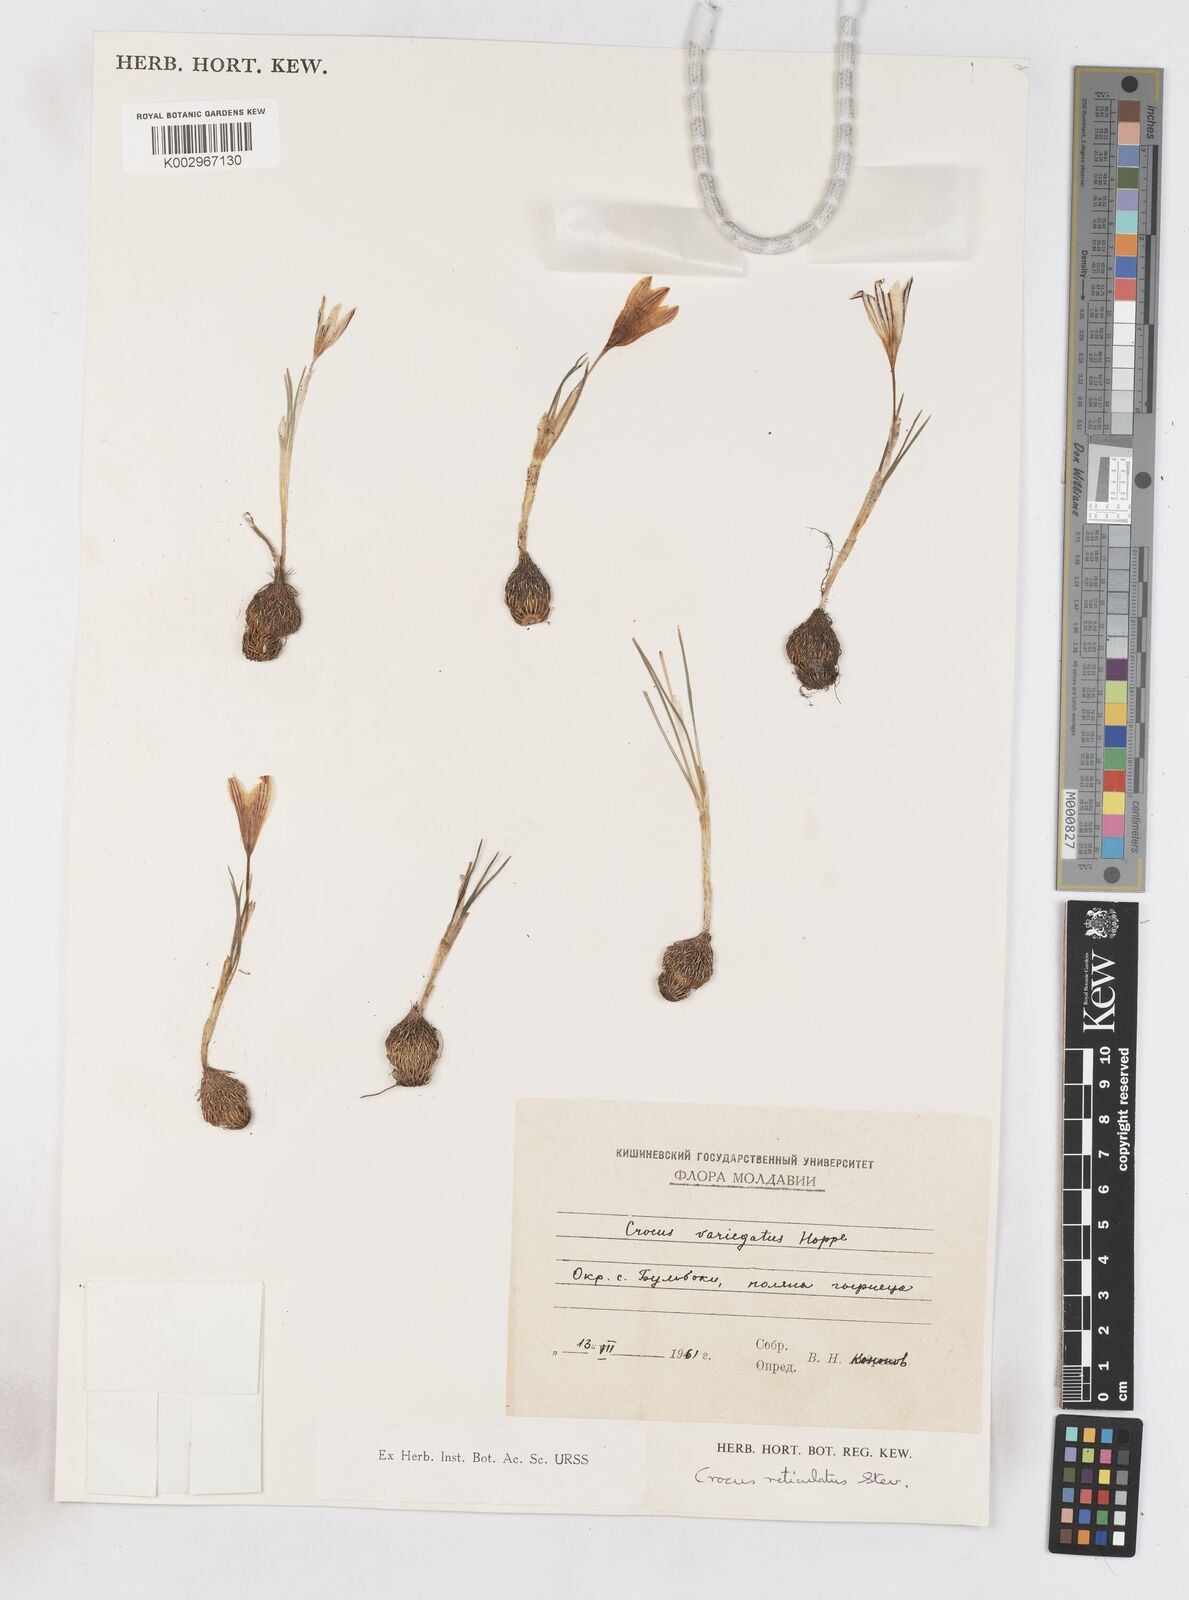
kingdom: Plantae
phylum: Tracheophyta
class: Liliopsida
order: Asparagales
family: Iridaceae
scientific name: Iridaceae
